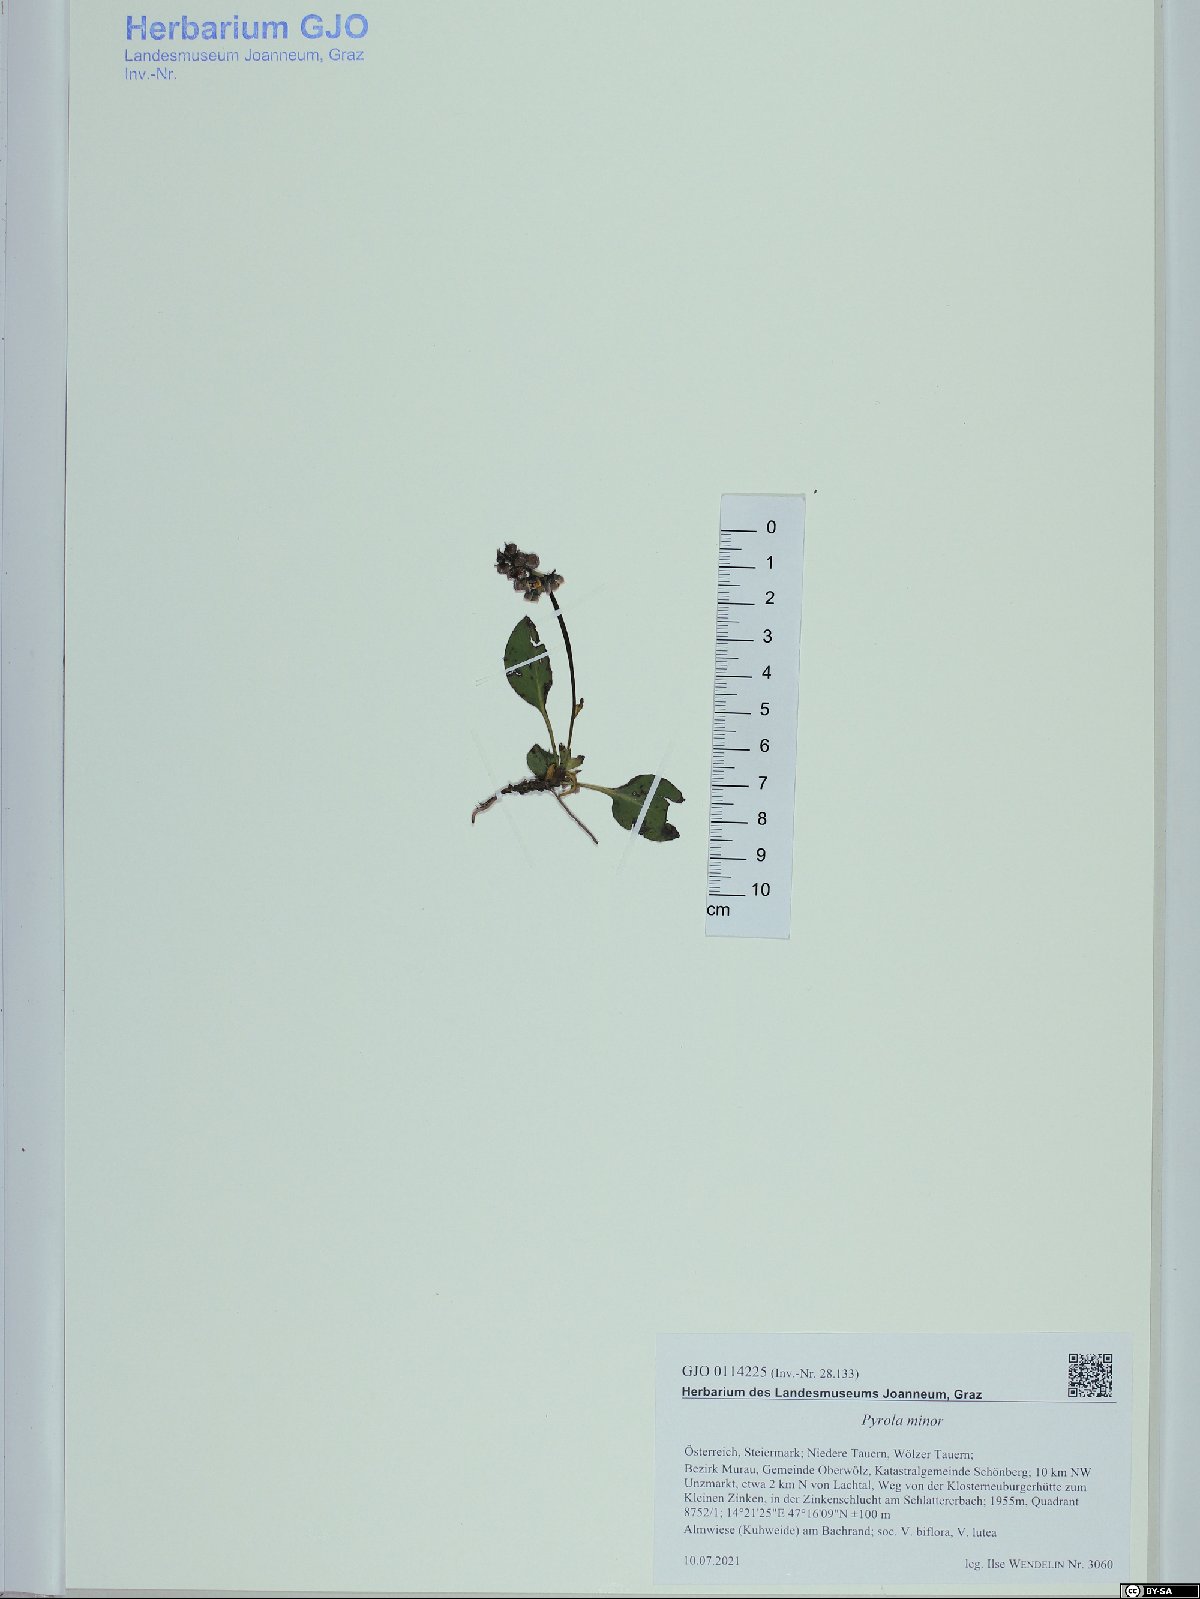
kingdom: Plantae
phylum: Tracheophyta
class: Magnoliopsida
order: Ericales
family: Ericaceae
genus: Pyrola
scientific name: Pyrola minor
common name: Common wintergreen
